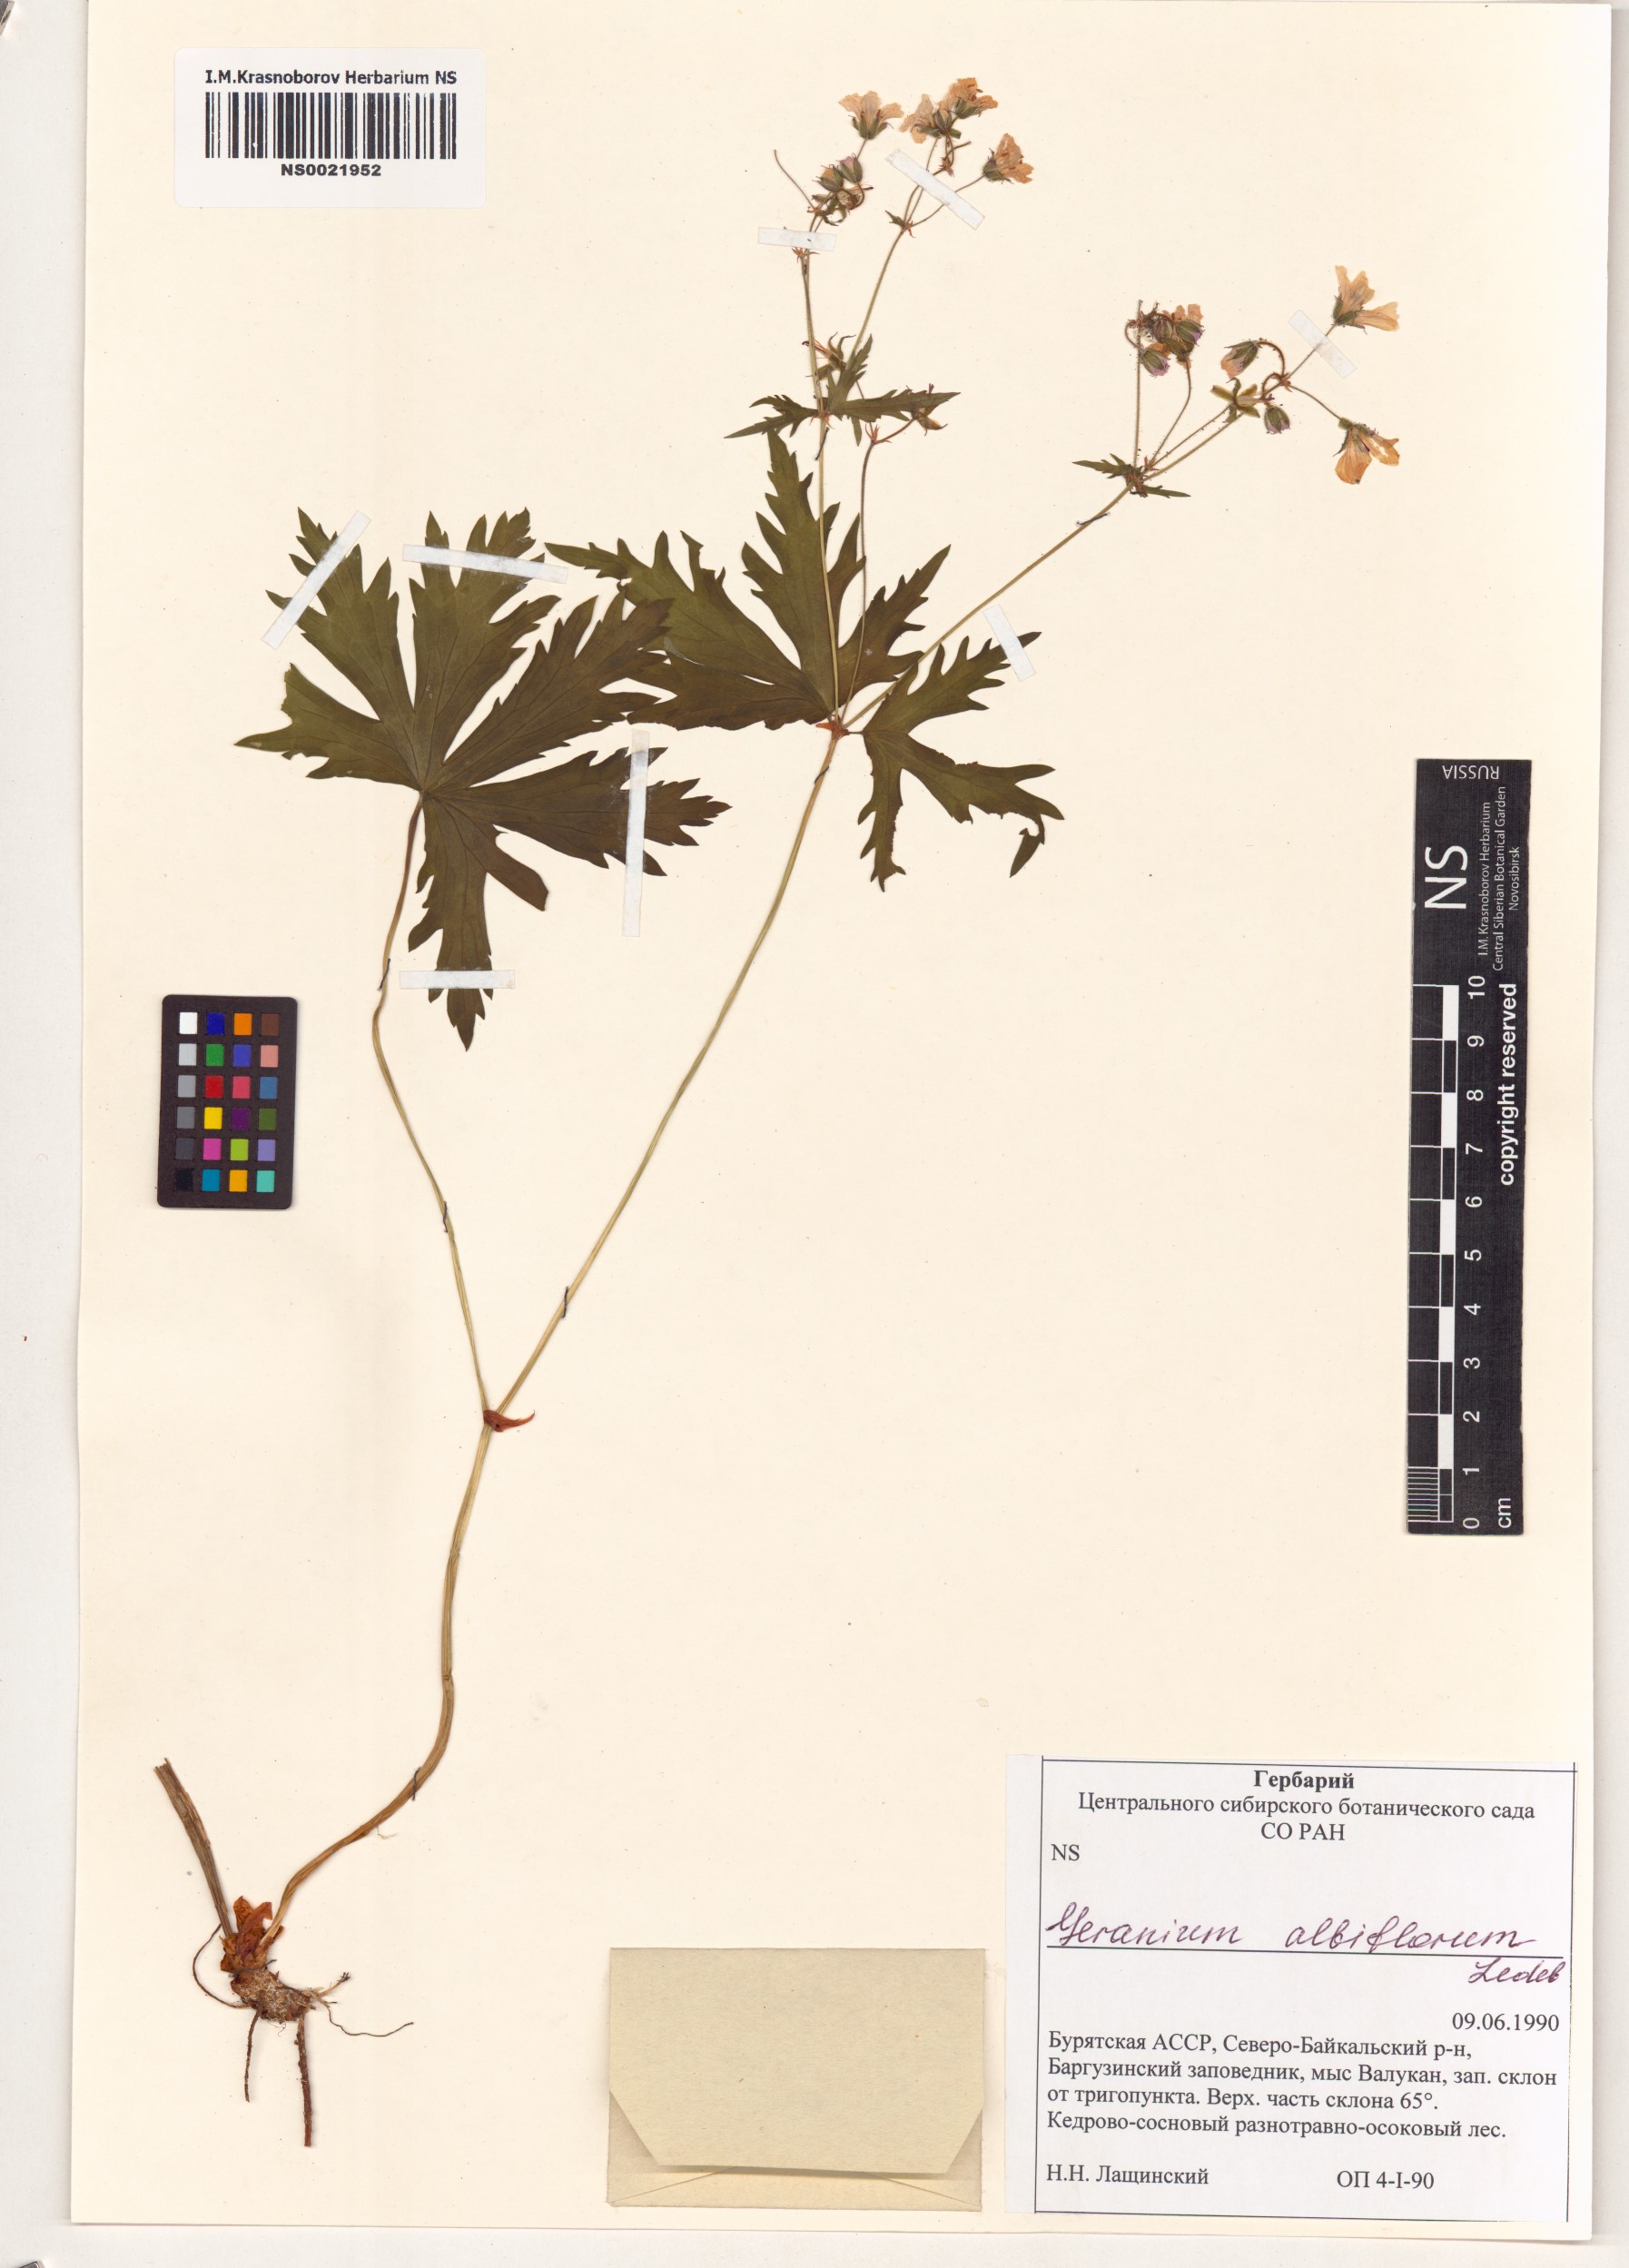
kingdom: Plantae
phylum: Tracheophyta
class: Magnoliopsida
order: Geraniales
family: Geraniaceae
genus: Geranium
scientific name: Geranium albiflorum
